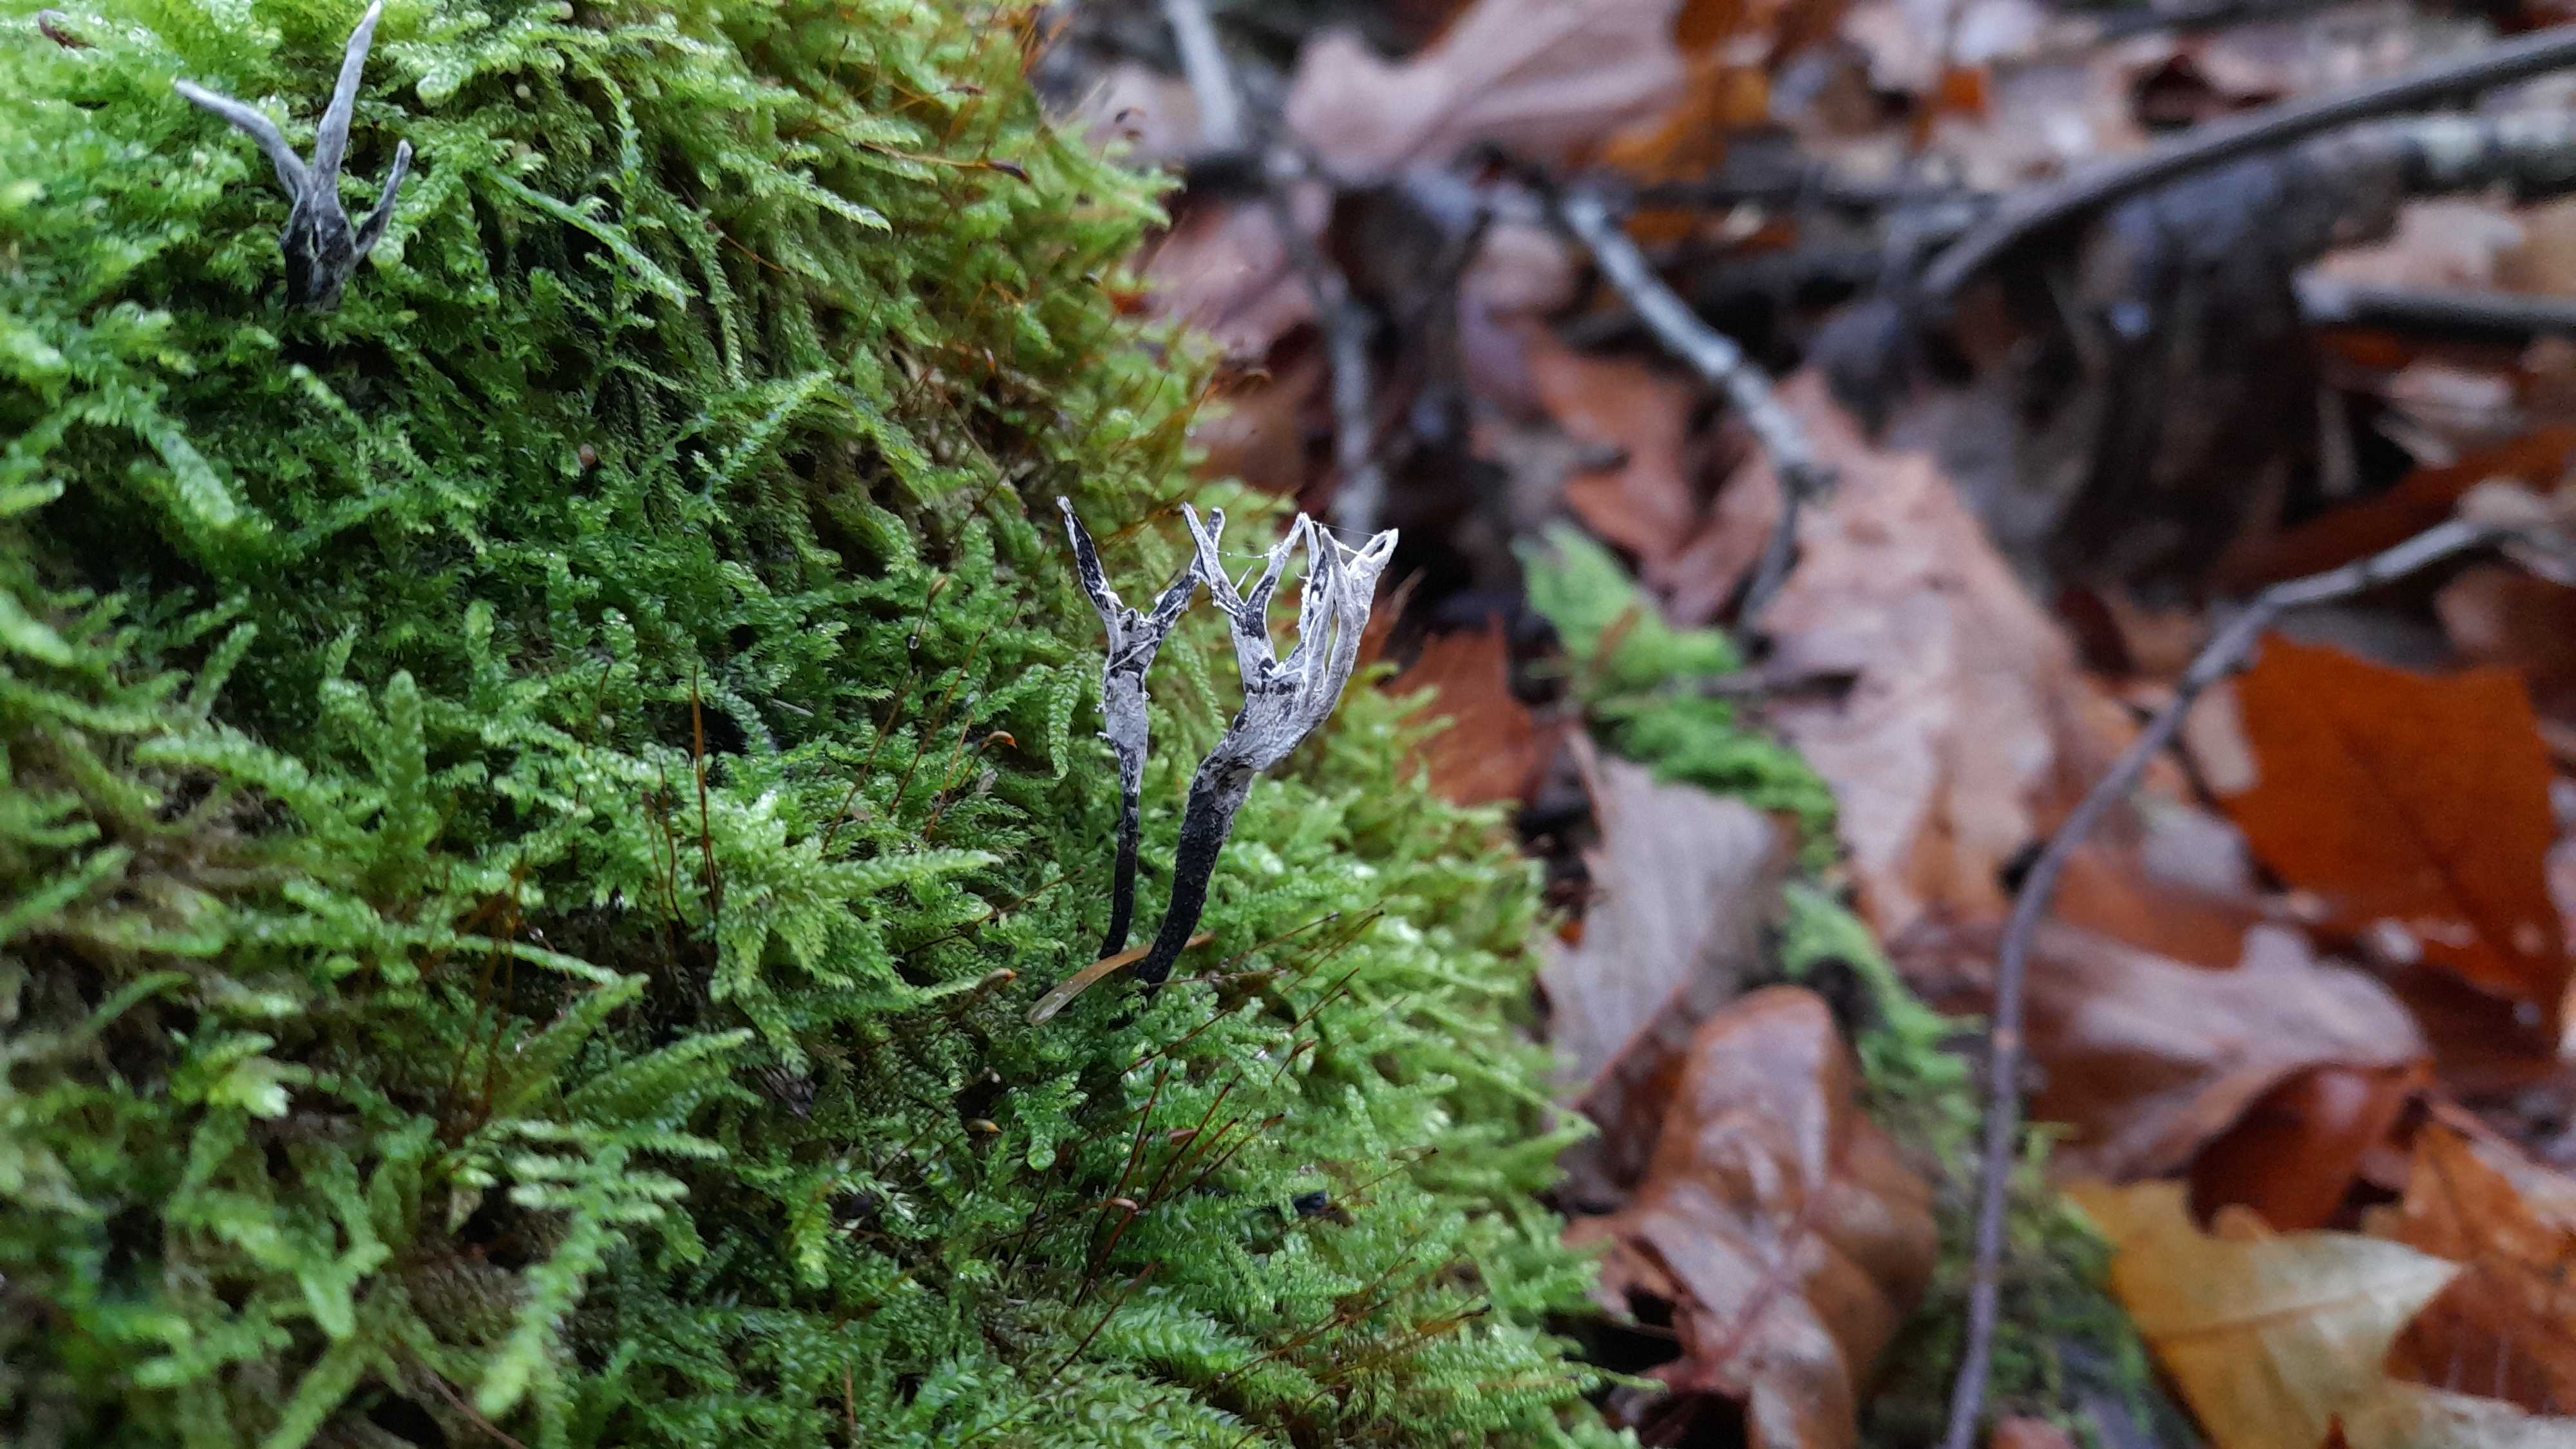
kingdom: Fungi
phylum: Ascomycota
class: Sordariomycetes
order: Xylariales
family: Xylariaceae
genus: Xylaria
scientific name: Xylaria hypoxylon
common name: grenet stødsvamp
